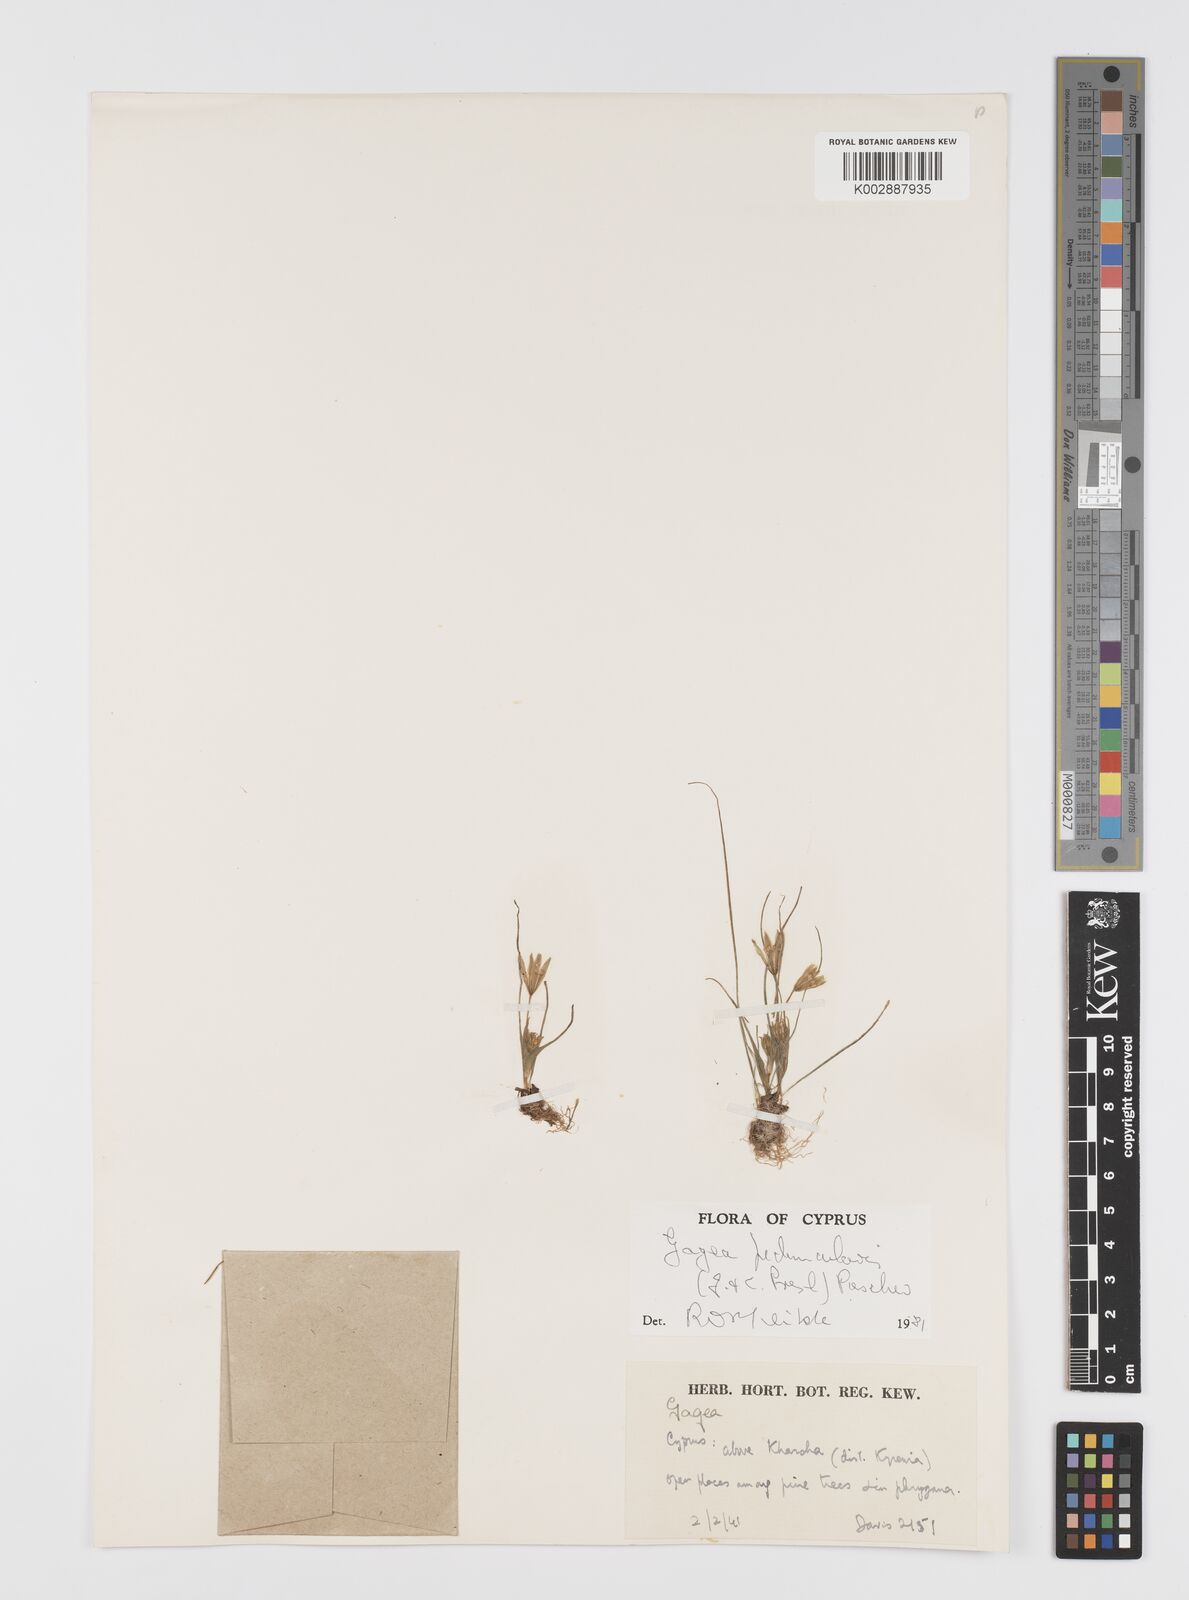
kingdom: Plantae
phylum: Tracheophyta
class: Liliopsida
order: Liliales
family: Liliaceae
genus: Gagea
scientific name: Gagea peduncularis
